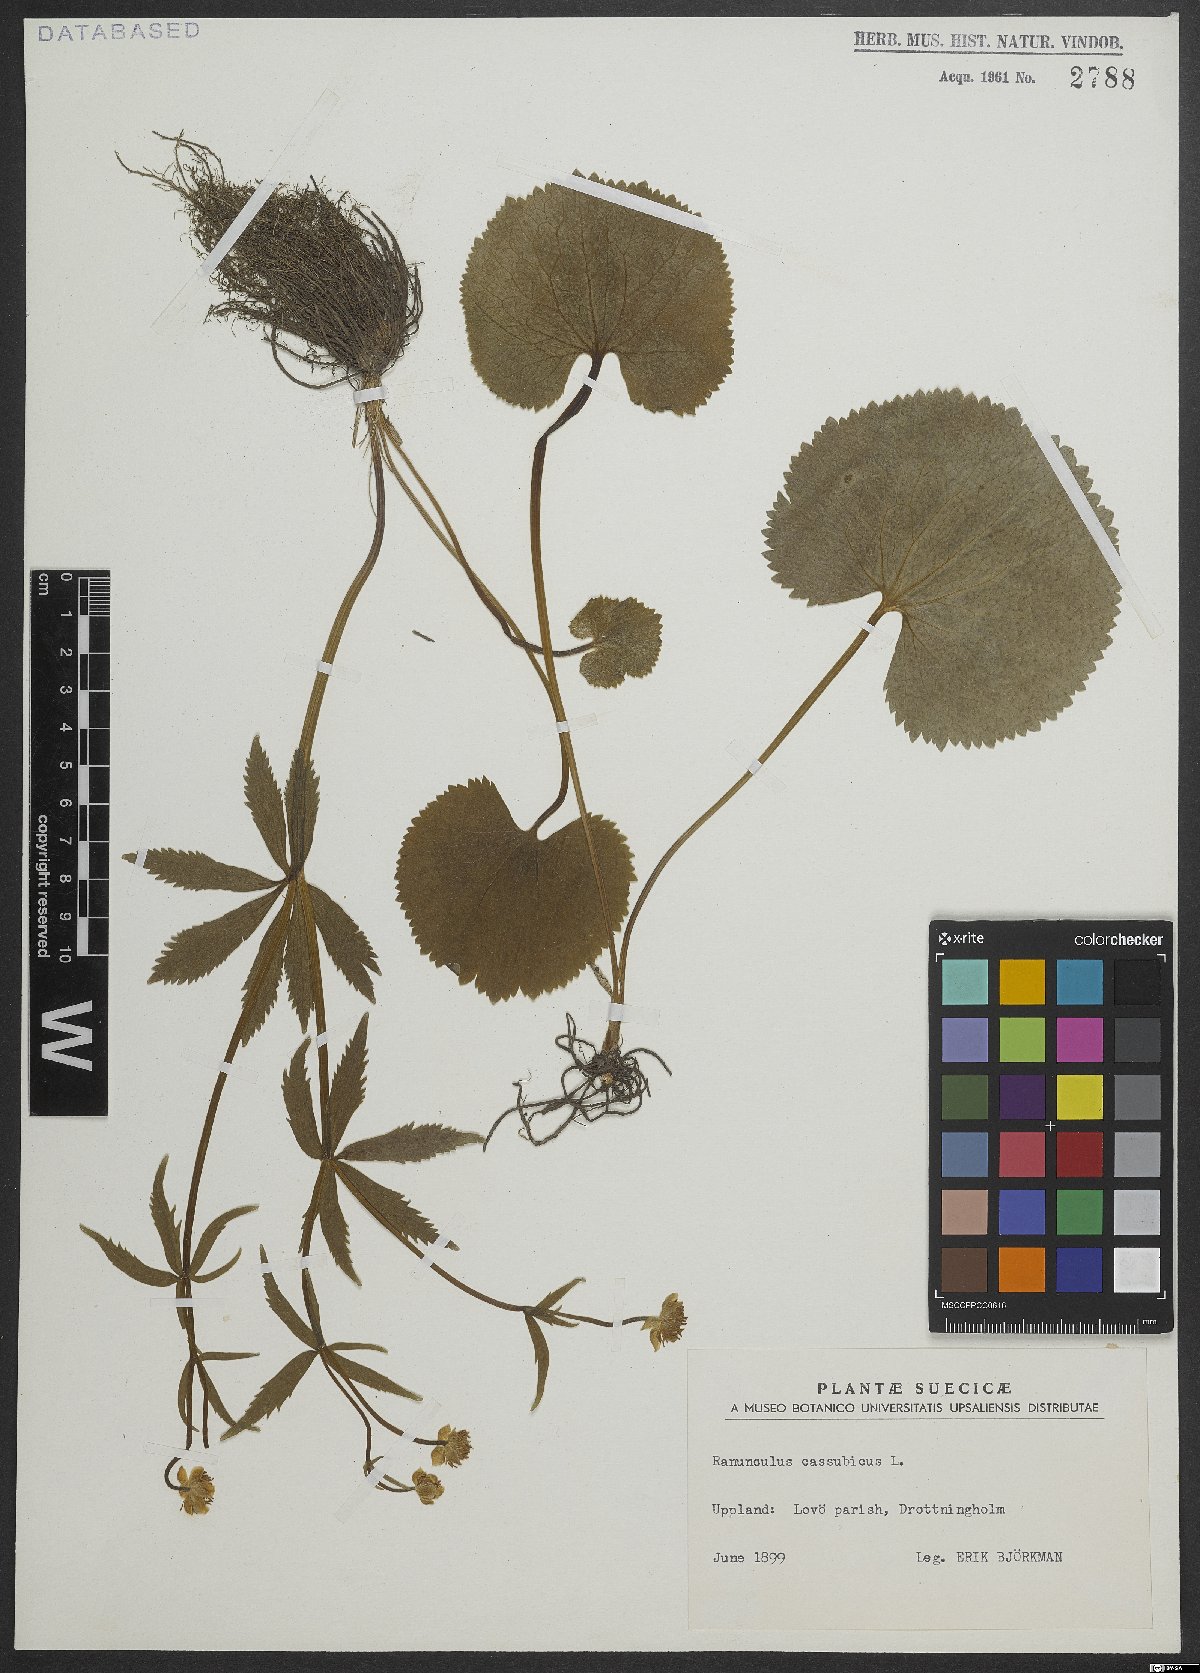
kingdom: Plantae
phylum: Tracheophyta
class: Magnoliopsida
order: Ranunculales
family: Ranunculaceae
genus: Ranunculus
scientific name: Ranunculus cassubicus
